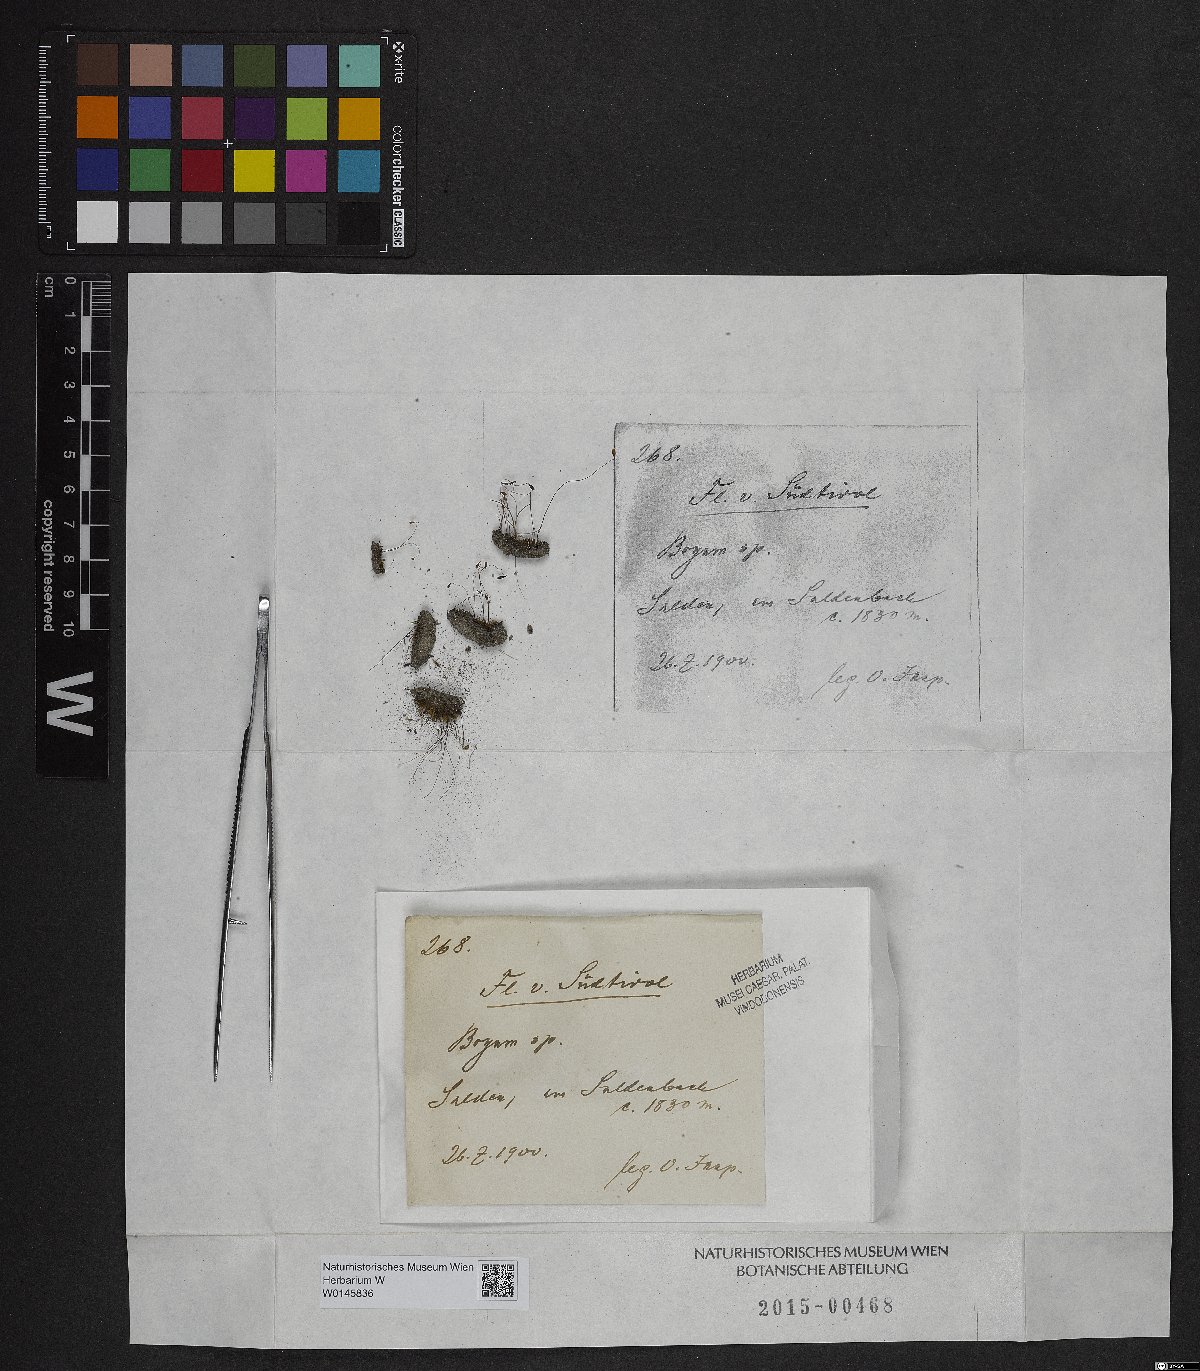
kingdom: Plantae
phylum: Bryophyta
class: Bryopsida
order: Bryales
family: Bryaceae
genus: Bryum
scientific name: Bryum
